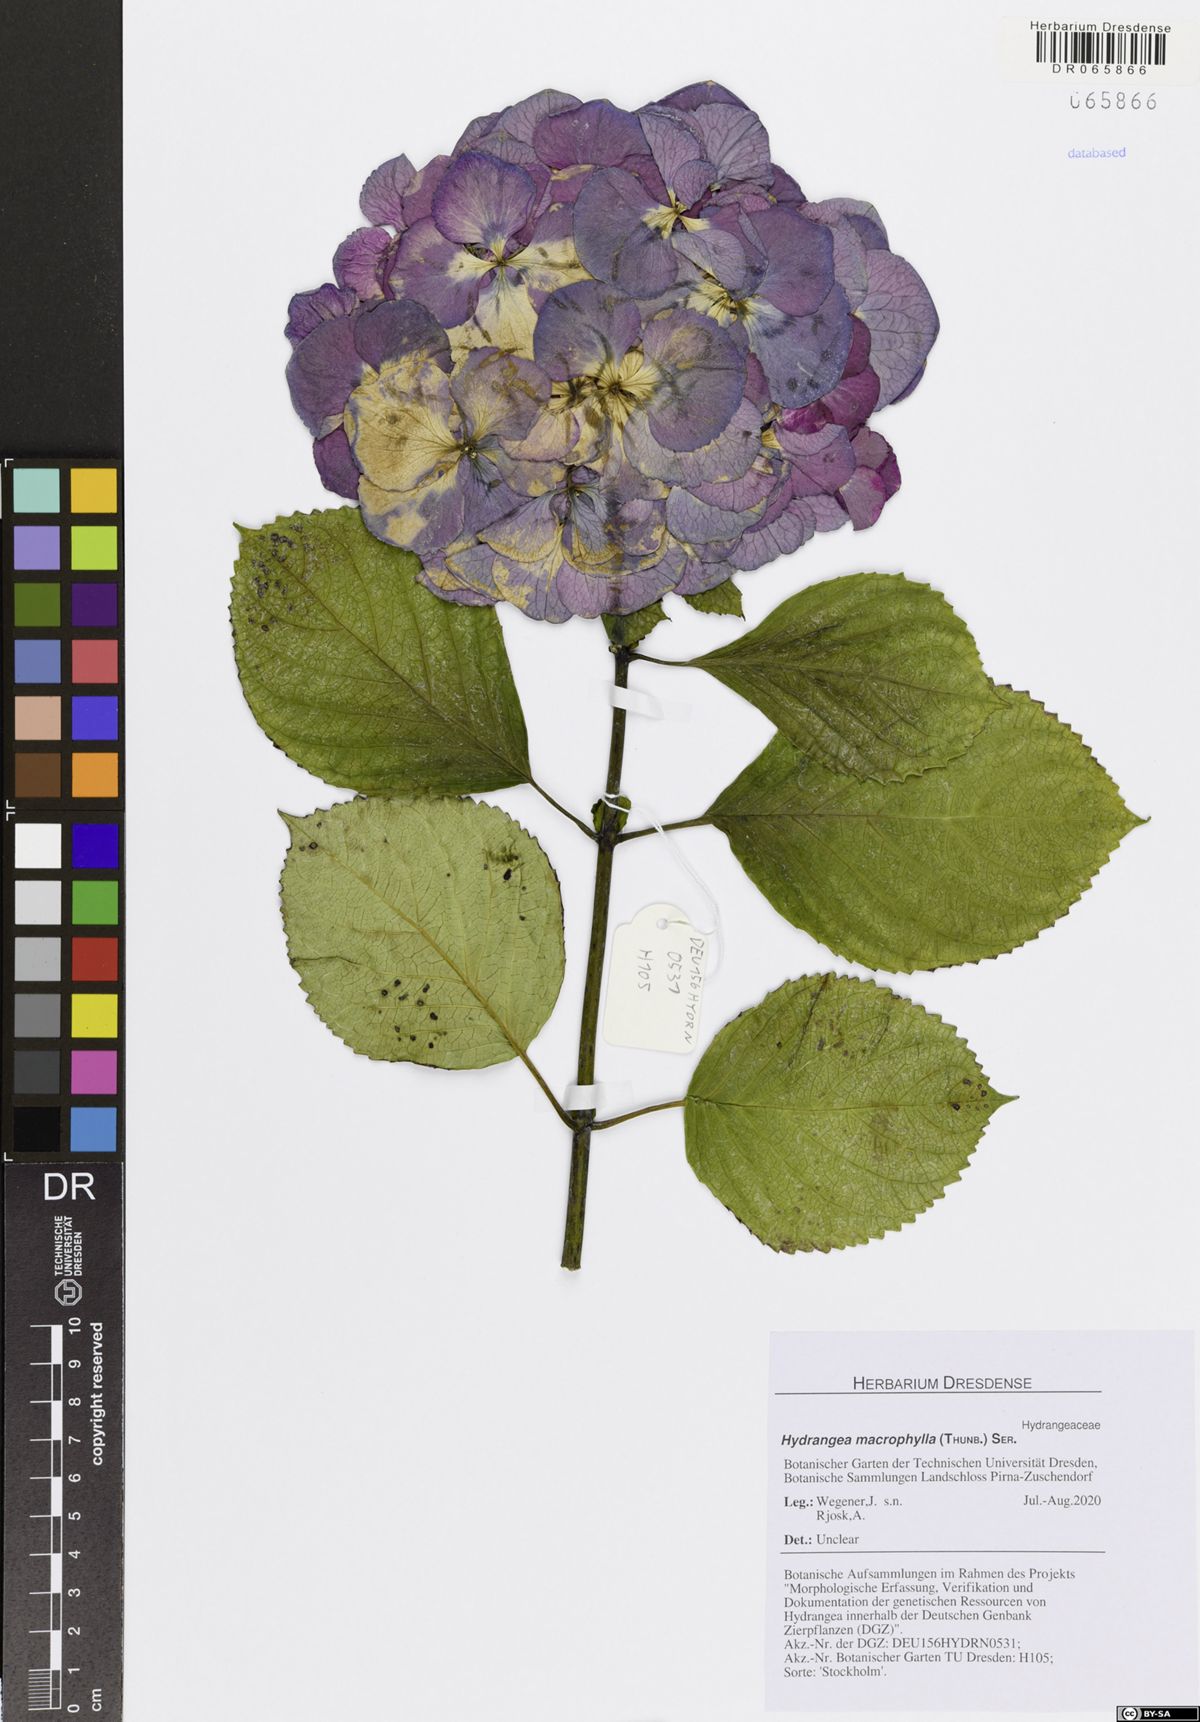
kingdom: Plantae
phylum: Tracheophyta
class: Magnoliopsida
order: Cornales
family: Hydrangeaceae
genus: Hydrangea
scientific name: Hydrangea macrophylla
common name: Hydrangea
